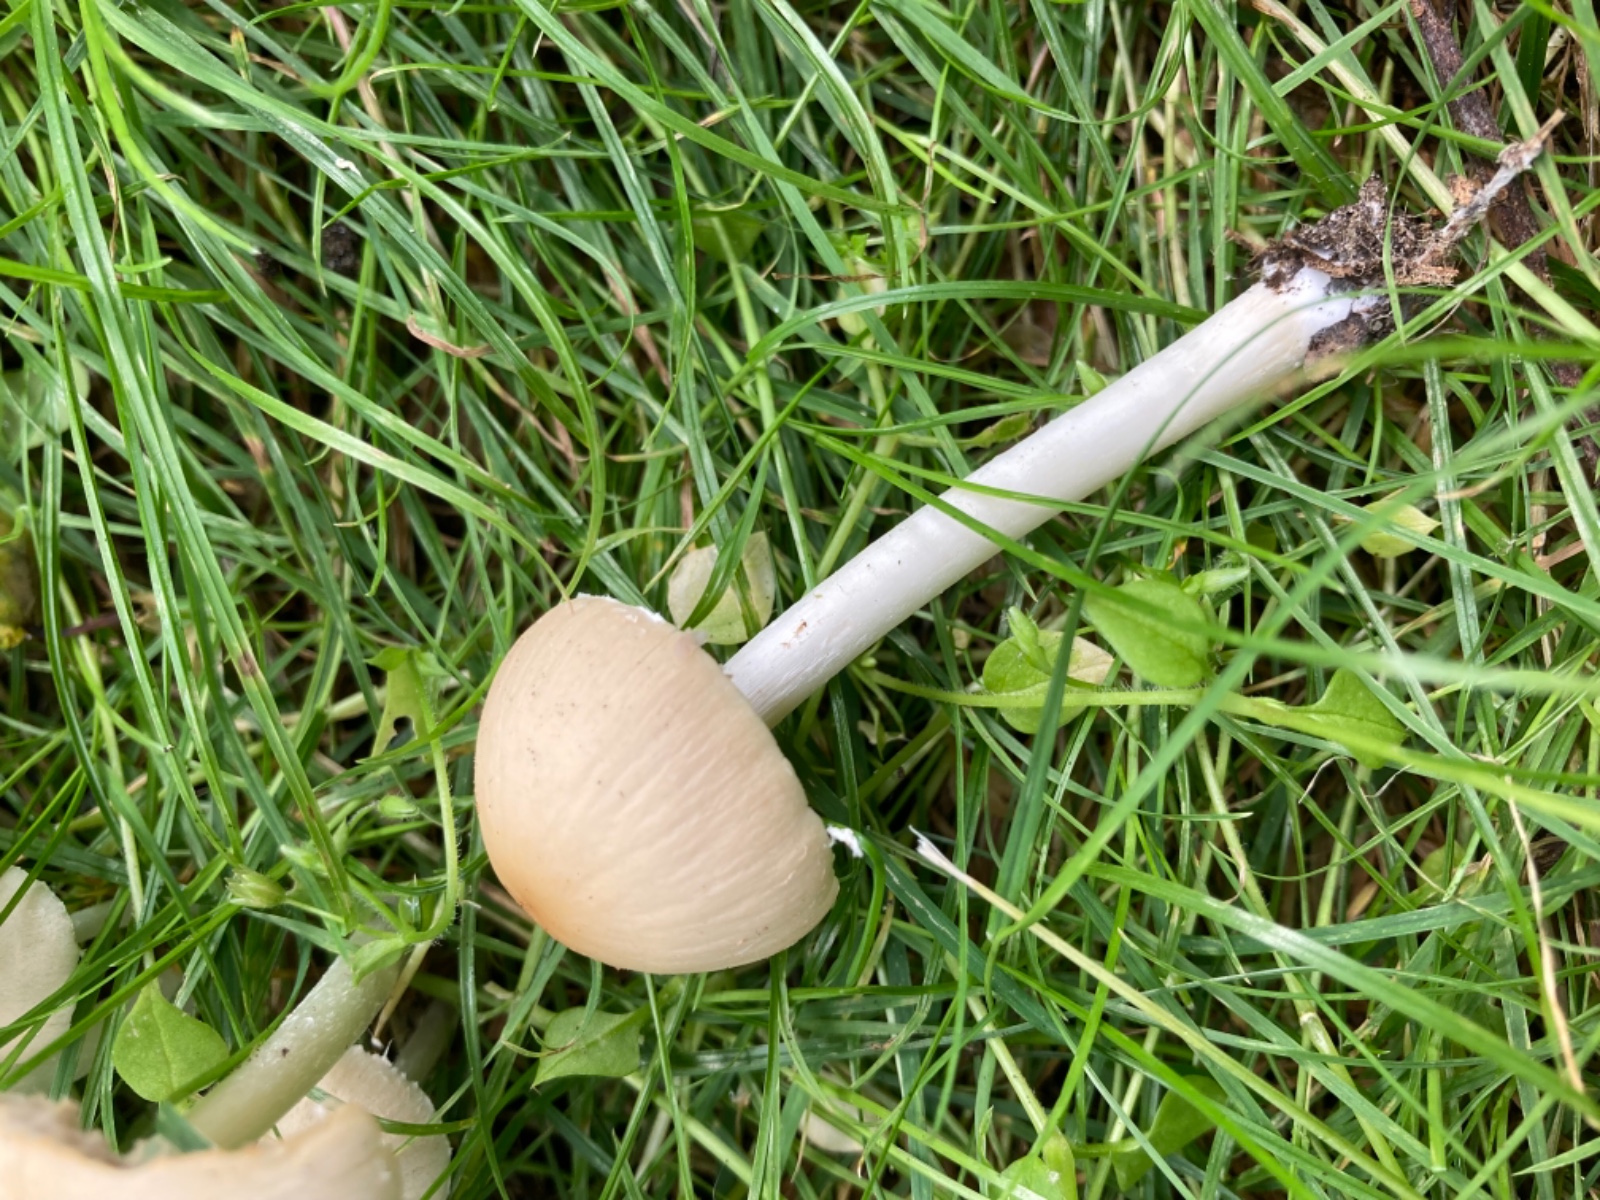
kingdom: Fungi
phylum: Basidiomycota
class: Agaricomycetes
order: Agaricales
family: Psathyrellaceae
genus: Candolleomyces
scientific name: Candolleomyces candolleanus
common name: Candolles mørkhat
